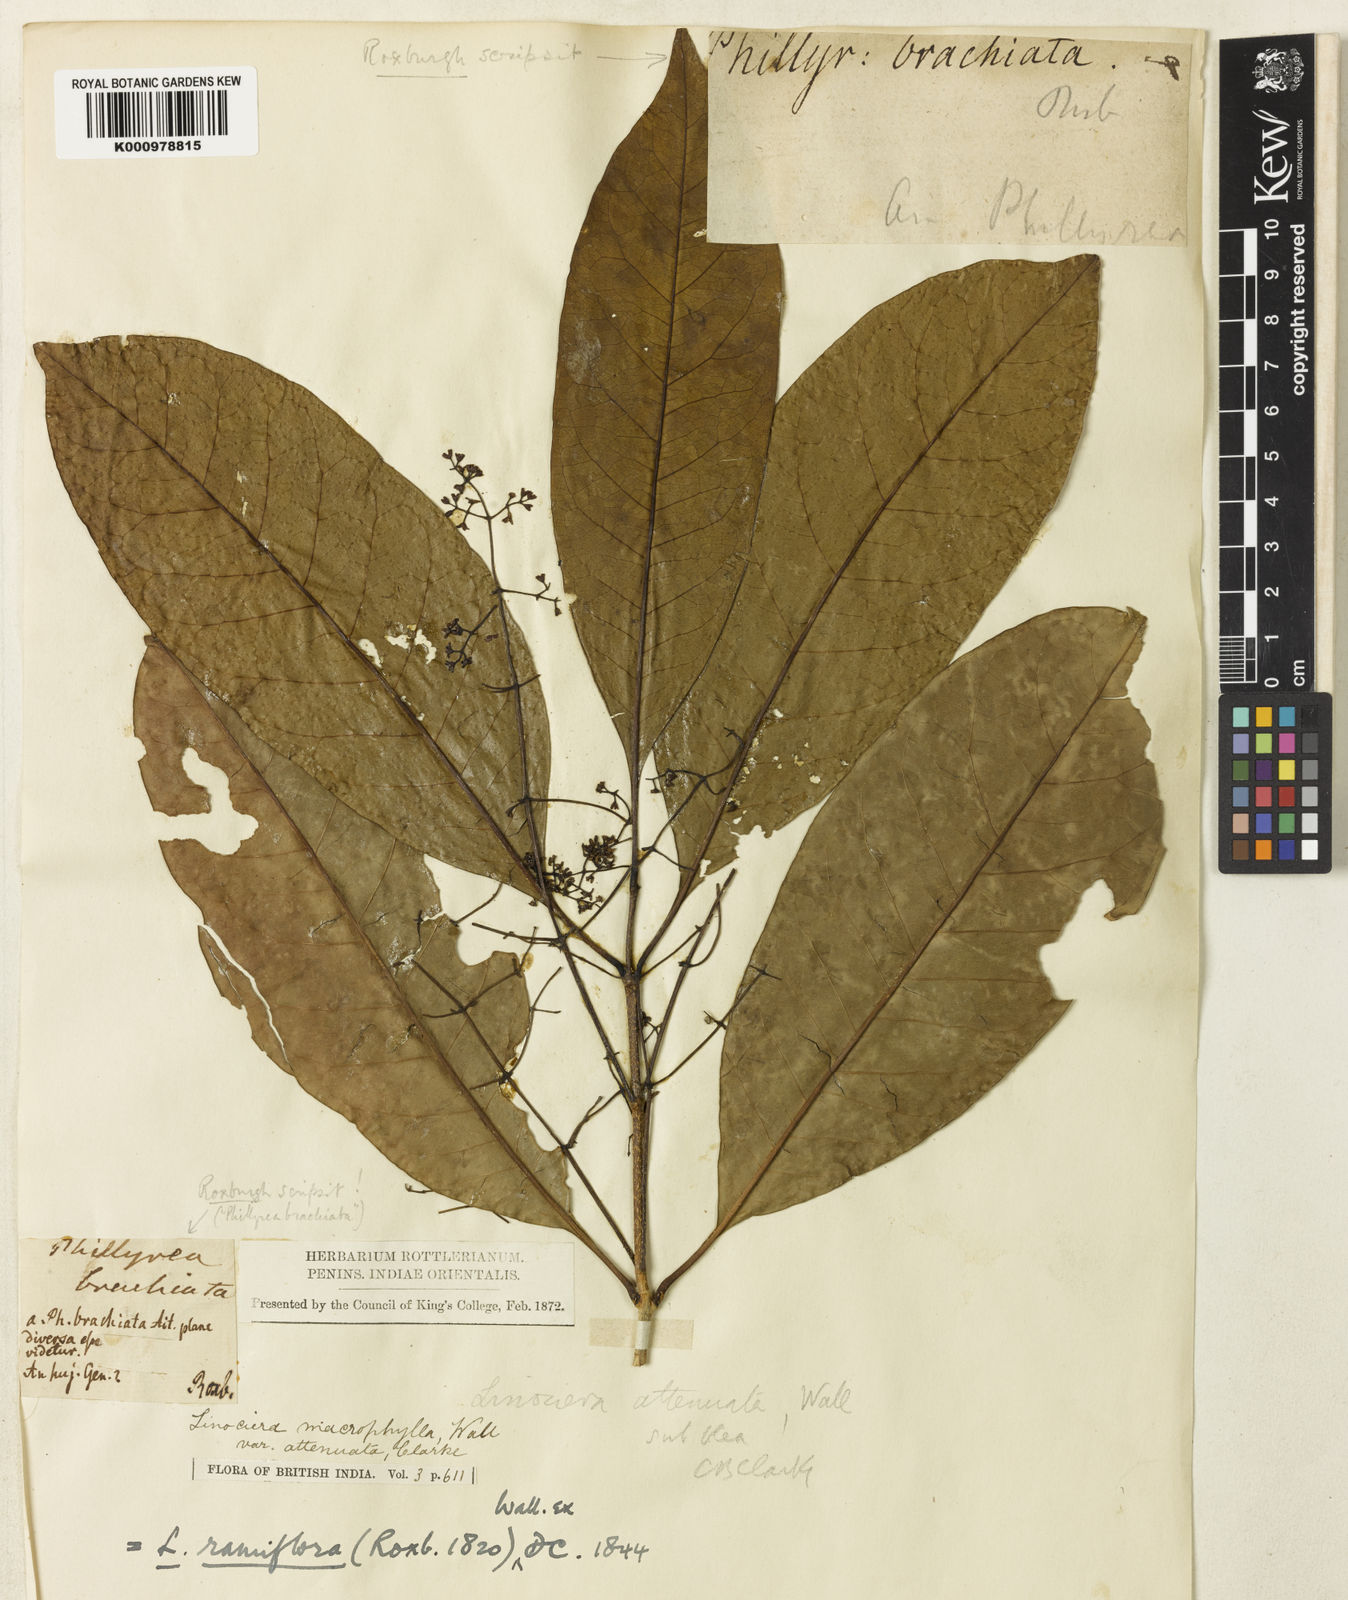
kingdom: Plantae
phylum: Tracheophyta
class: Magnoliopsida
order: Lamiales
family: Oleaceae
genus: Chionanthus
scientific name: Chionanthus ramiflorus
